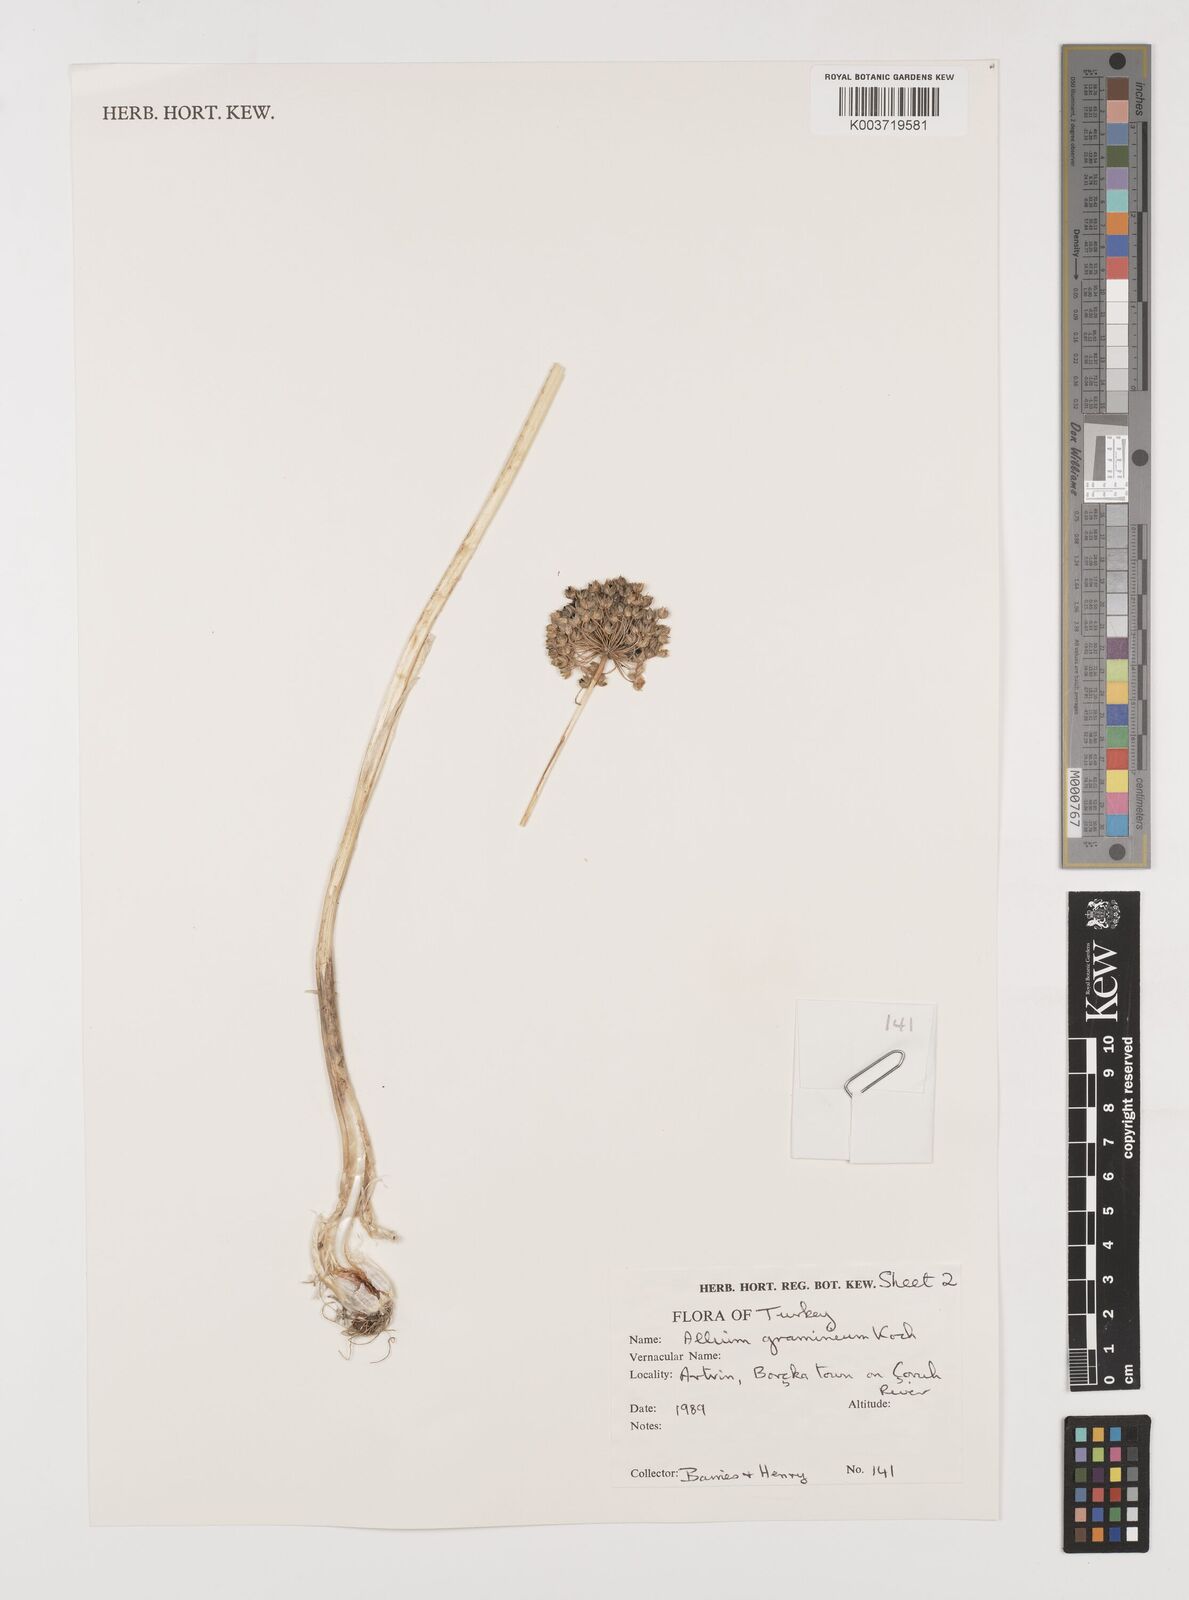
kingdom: Plantae
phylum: Tracheophyta
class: Liliopsida
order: Asparagales
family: Amaryllidaceae
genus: Allium
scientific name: Allium gramineum
